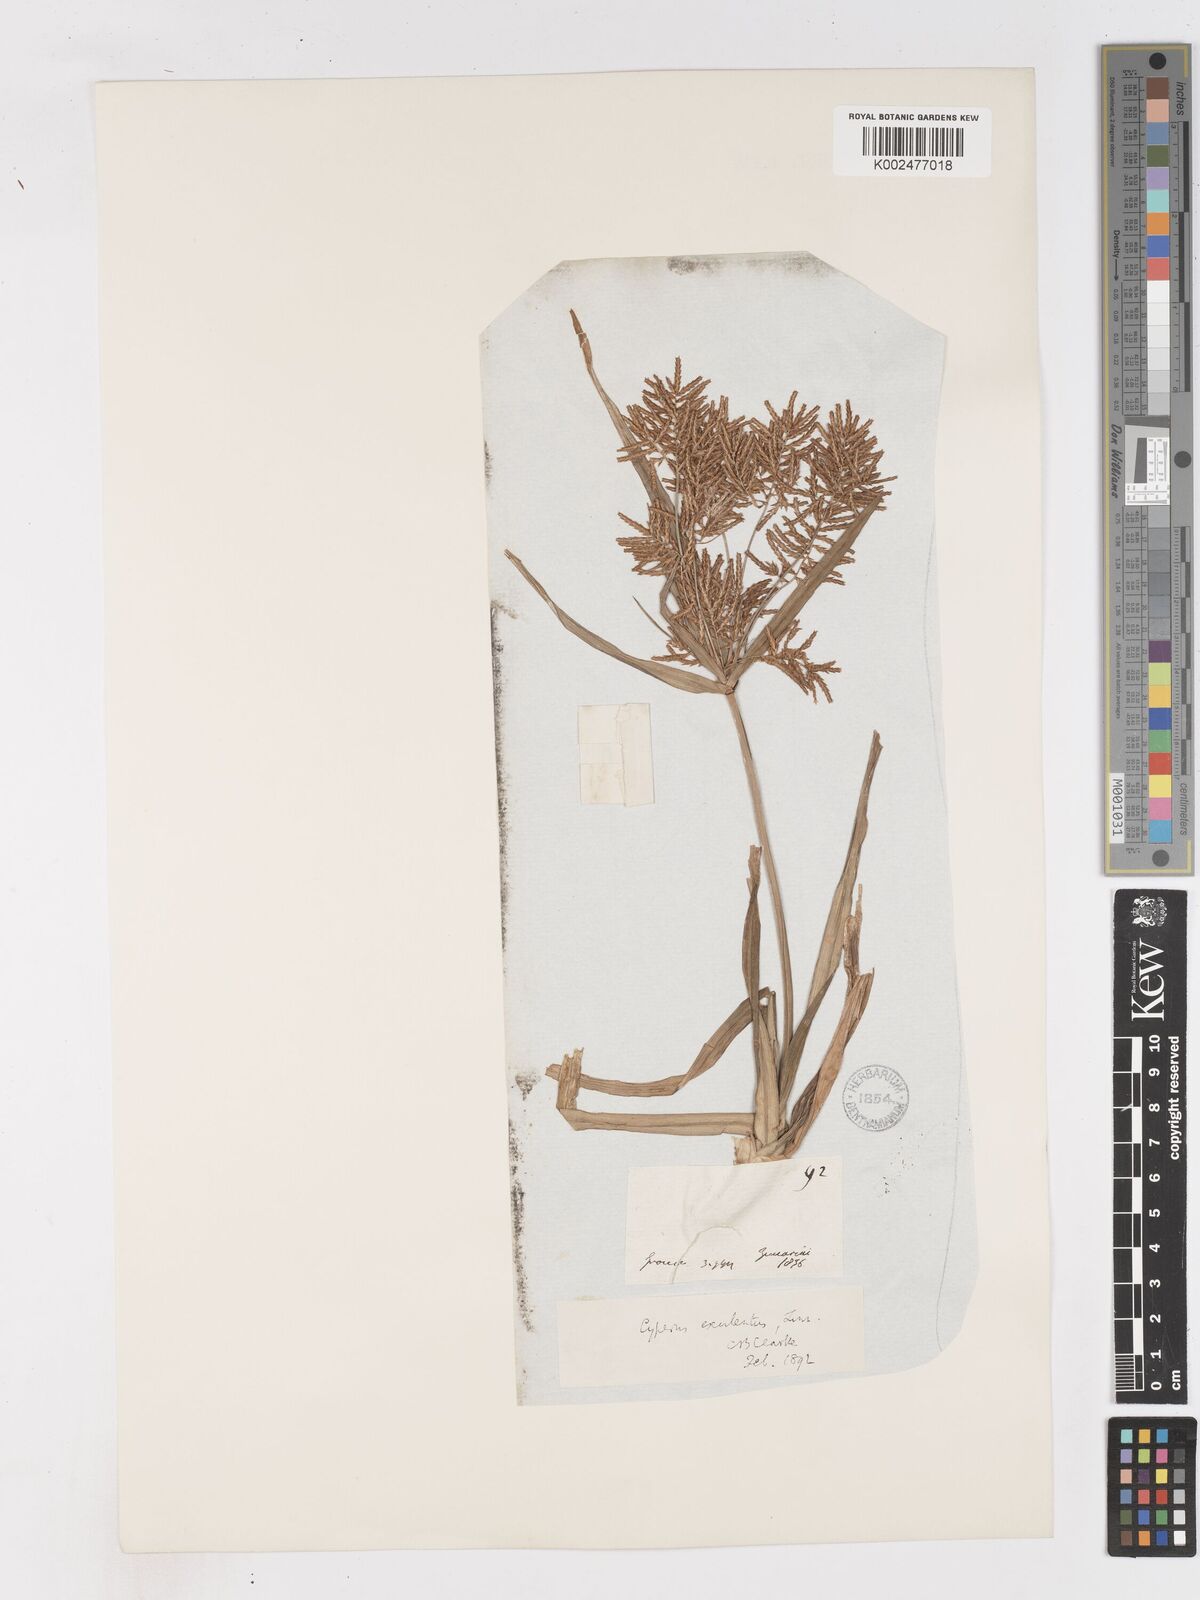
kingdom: Plantae
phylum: Tracheophyta
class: Liliopsida
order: Poales
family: Cyperaceae
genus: Cyperus
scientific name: Cyperus esculentus
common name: Yellow nutsedge
